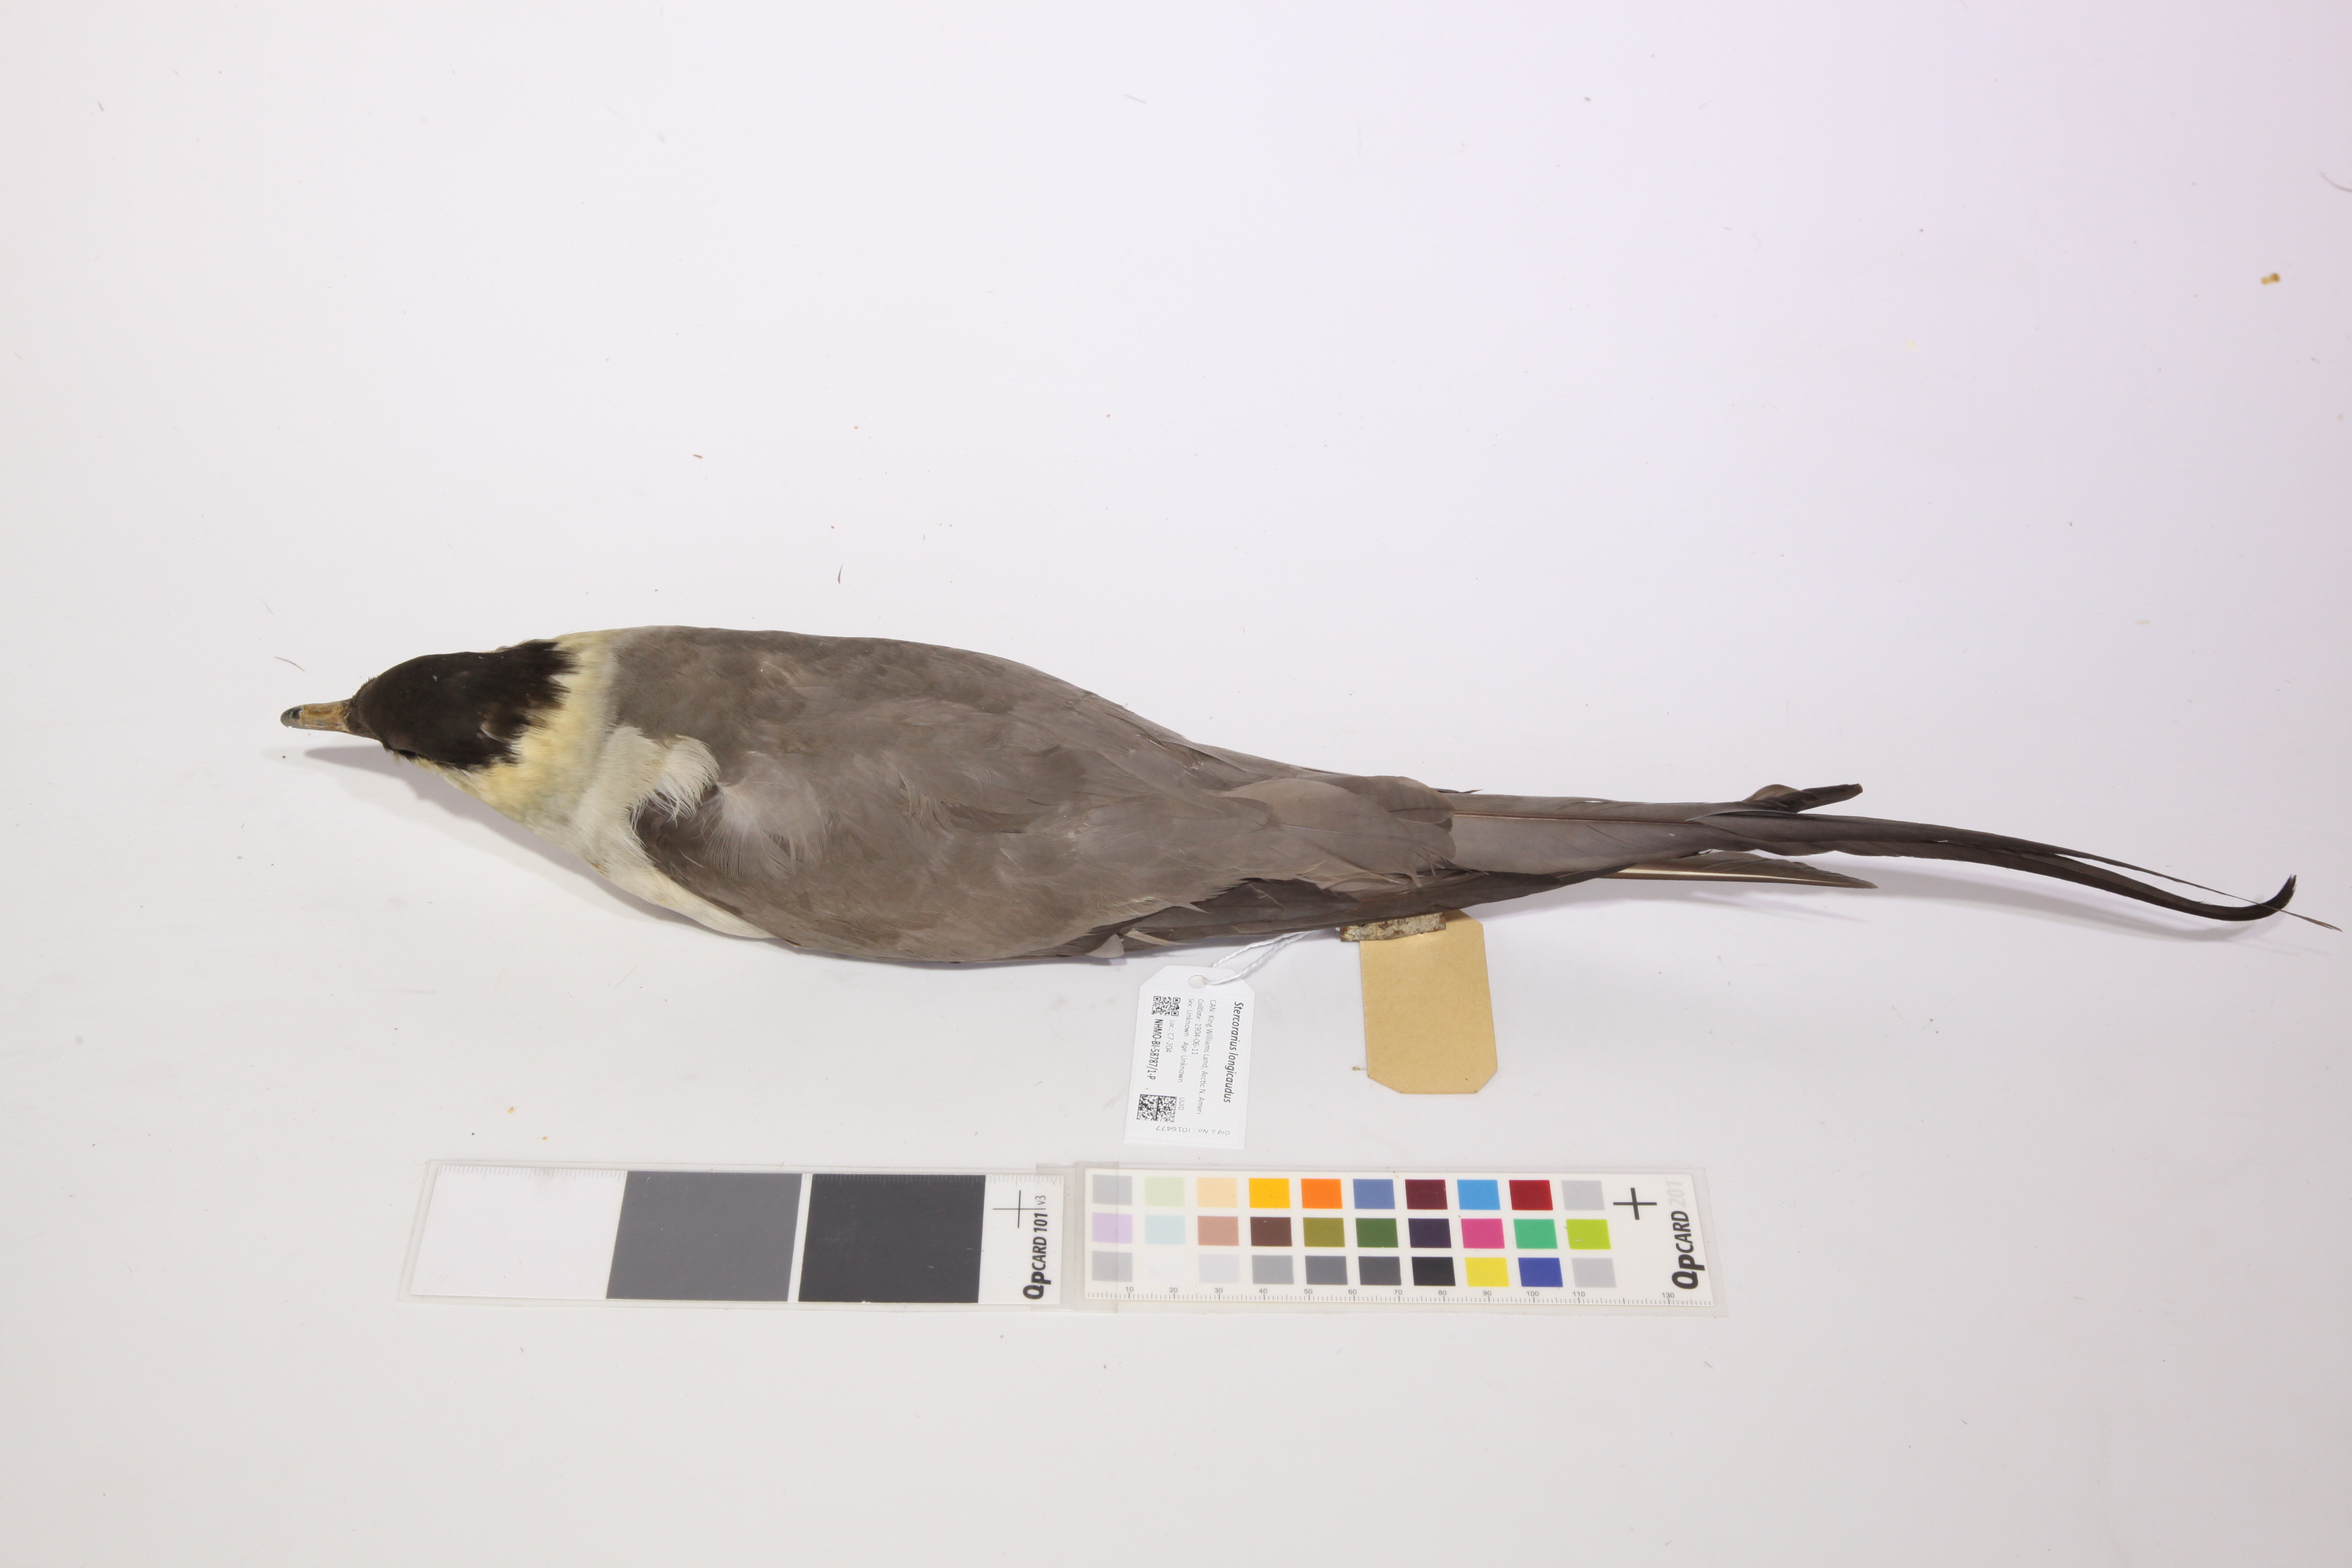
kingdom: Animalia
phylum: Chordata
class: Aves
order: Charadriiformes
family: Stercorariidae
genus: Stercorarius
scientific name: Stercorarius longicaudus
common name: Long-tailed jaeger
